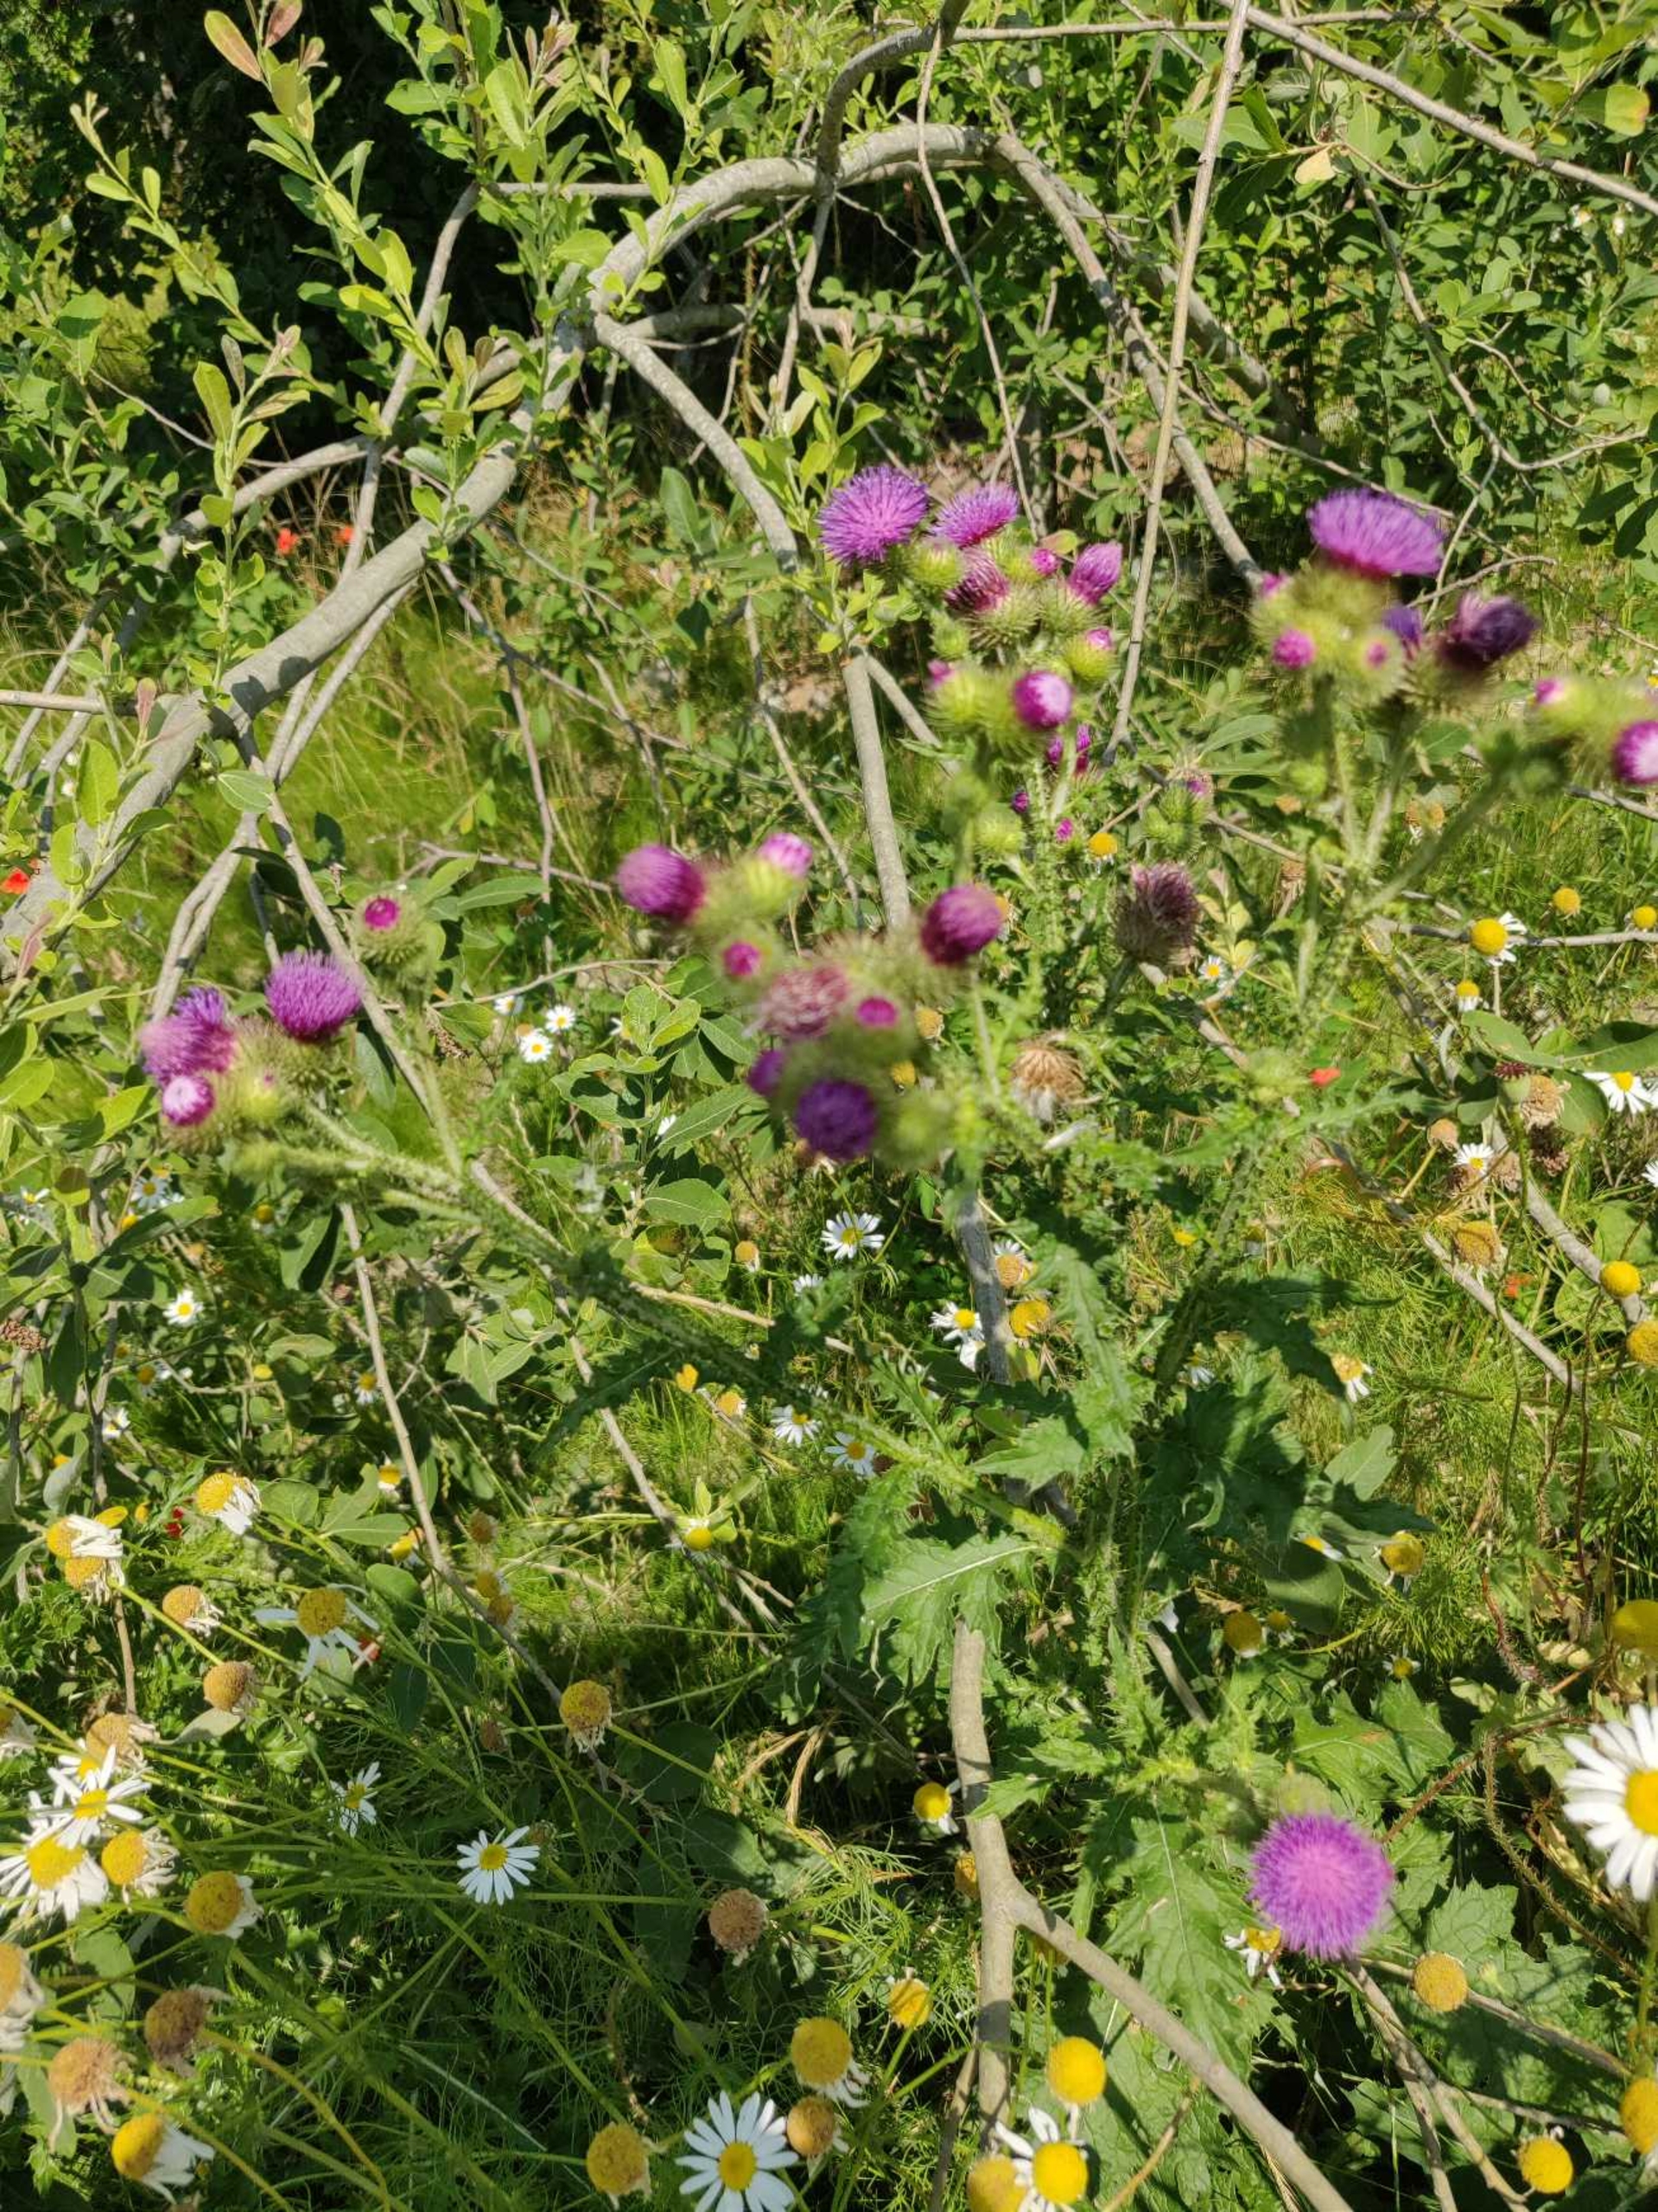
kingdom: Plantae
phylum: Tracheophyta
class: Magnoliopsida
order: Asterales
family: Asteraceae
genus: Carduus
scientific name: Carduus crispus
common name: Kruset tidsel
